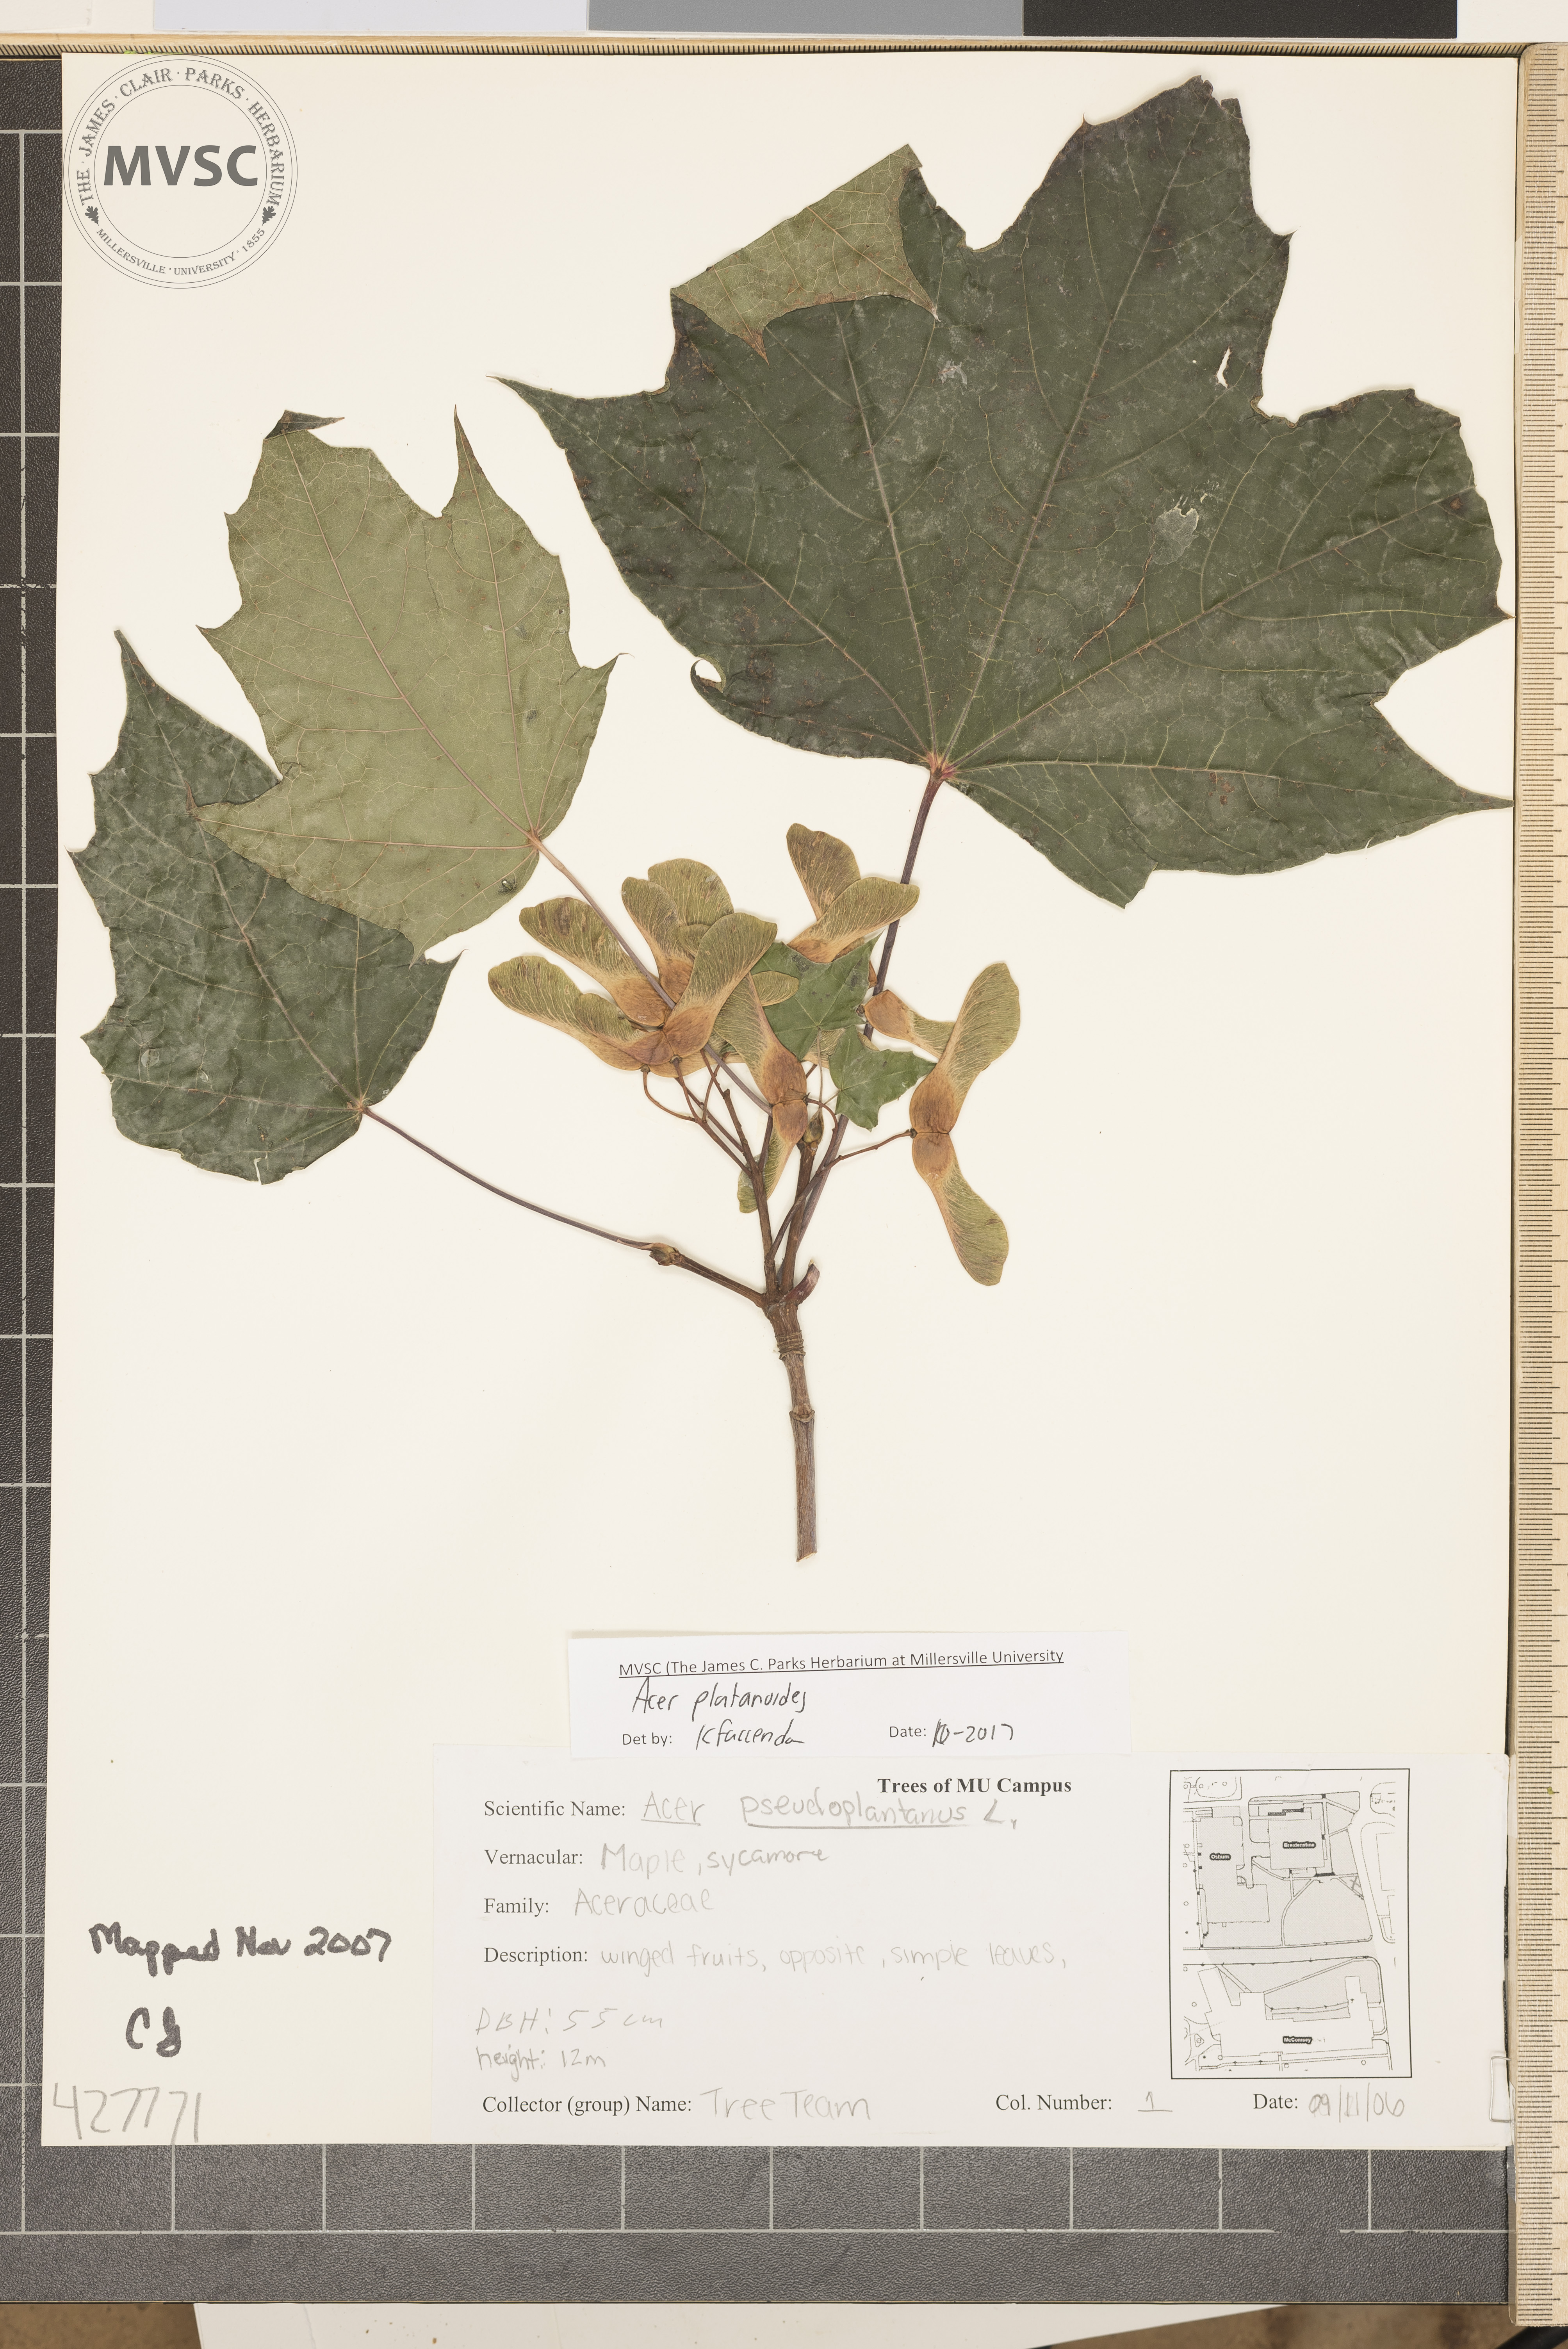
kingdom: Plantae
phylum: Tracheophyta
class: Magnoliopsida
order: Sapindales
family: Sapindaceae
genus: Acer
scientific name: Acer platanoides
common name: Norway maple
